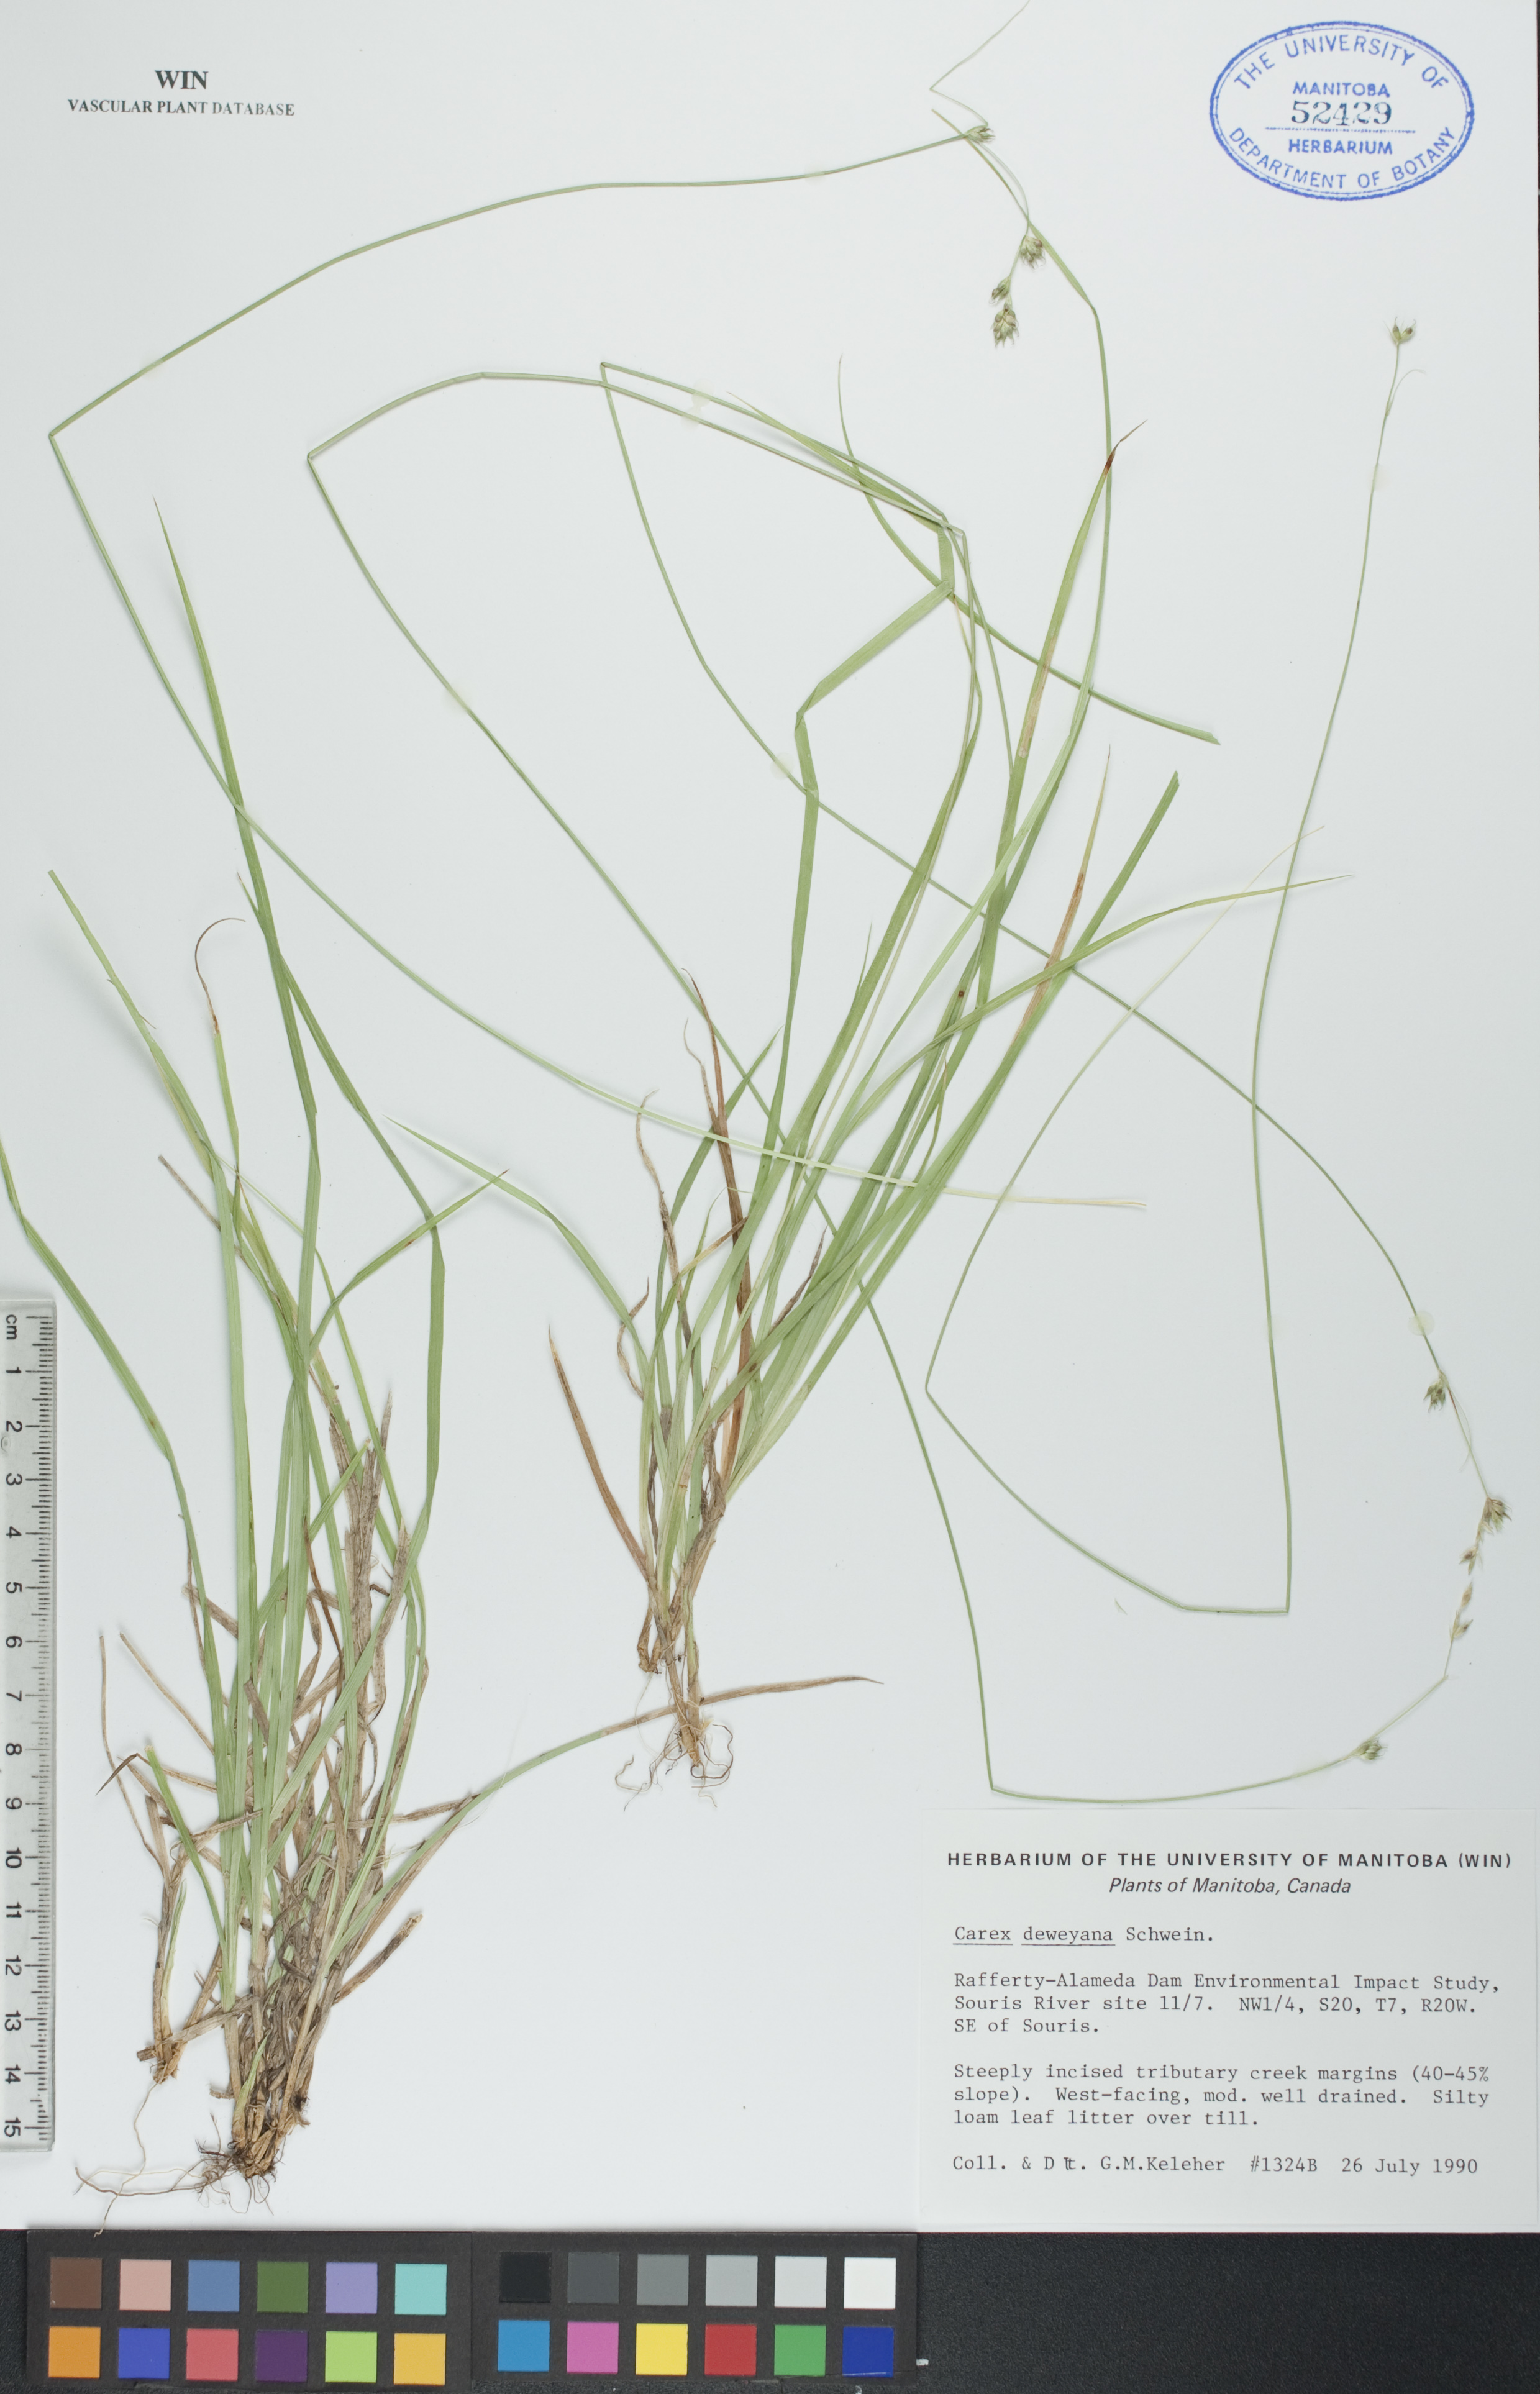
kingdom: Plantae
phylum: Tracheophyta
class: Liliopsida
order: Poales
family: Cyperaceae
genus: Carex
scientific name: Carex deweyana
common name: Dewey's sedge
